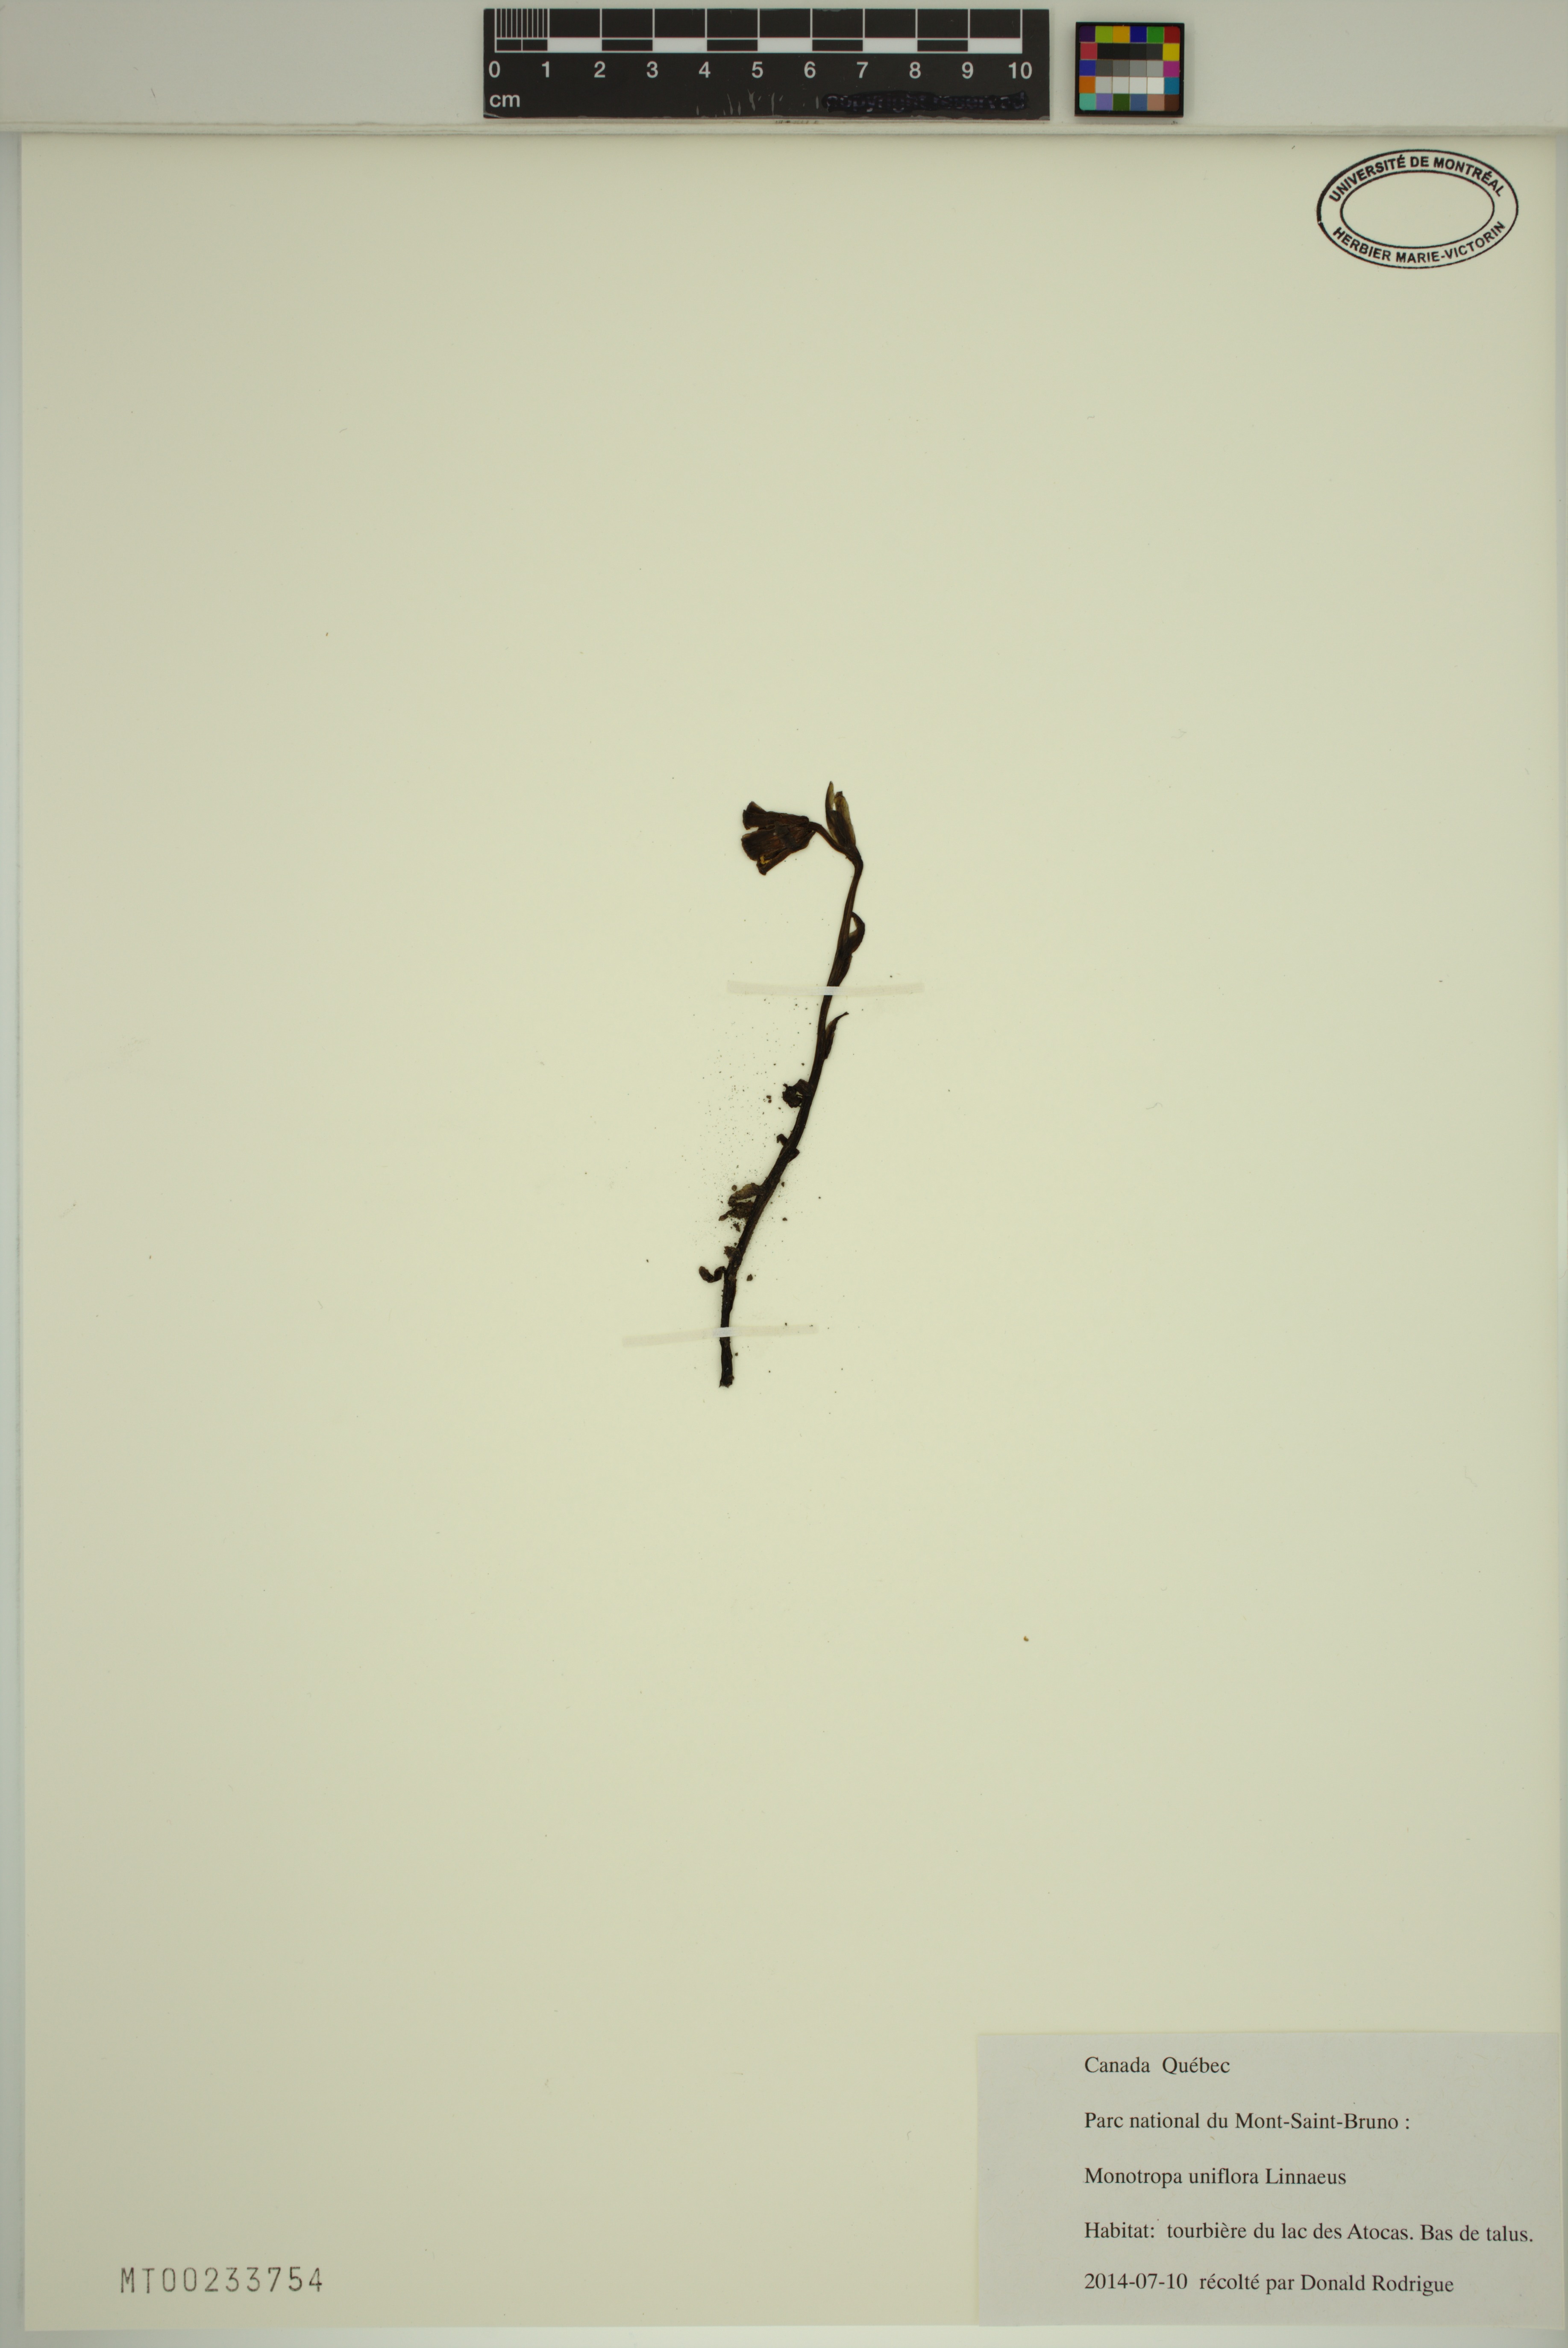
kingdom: Plantae
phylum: Tracheophyta
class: Magnoliopsida
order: Ericales
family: Ericaceae
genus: Monotropa
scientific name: Monotropa uniflora
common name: Convulsion root
